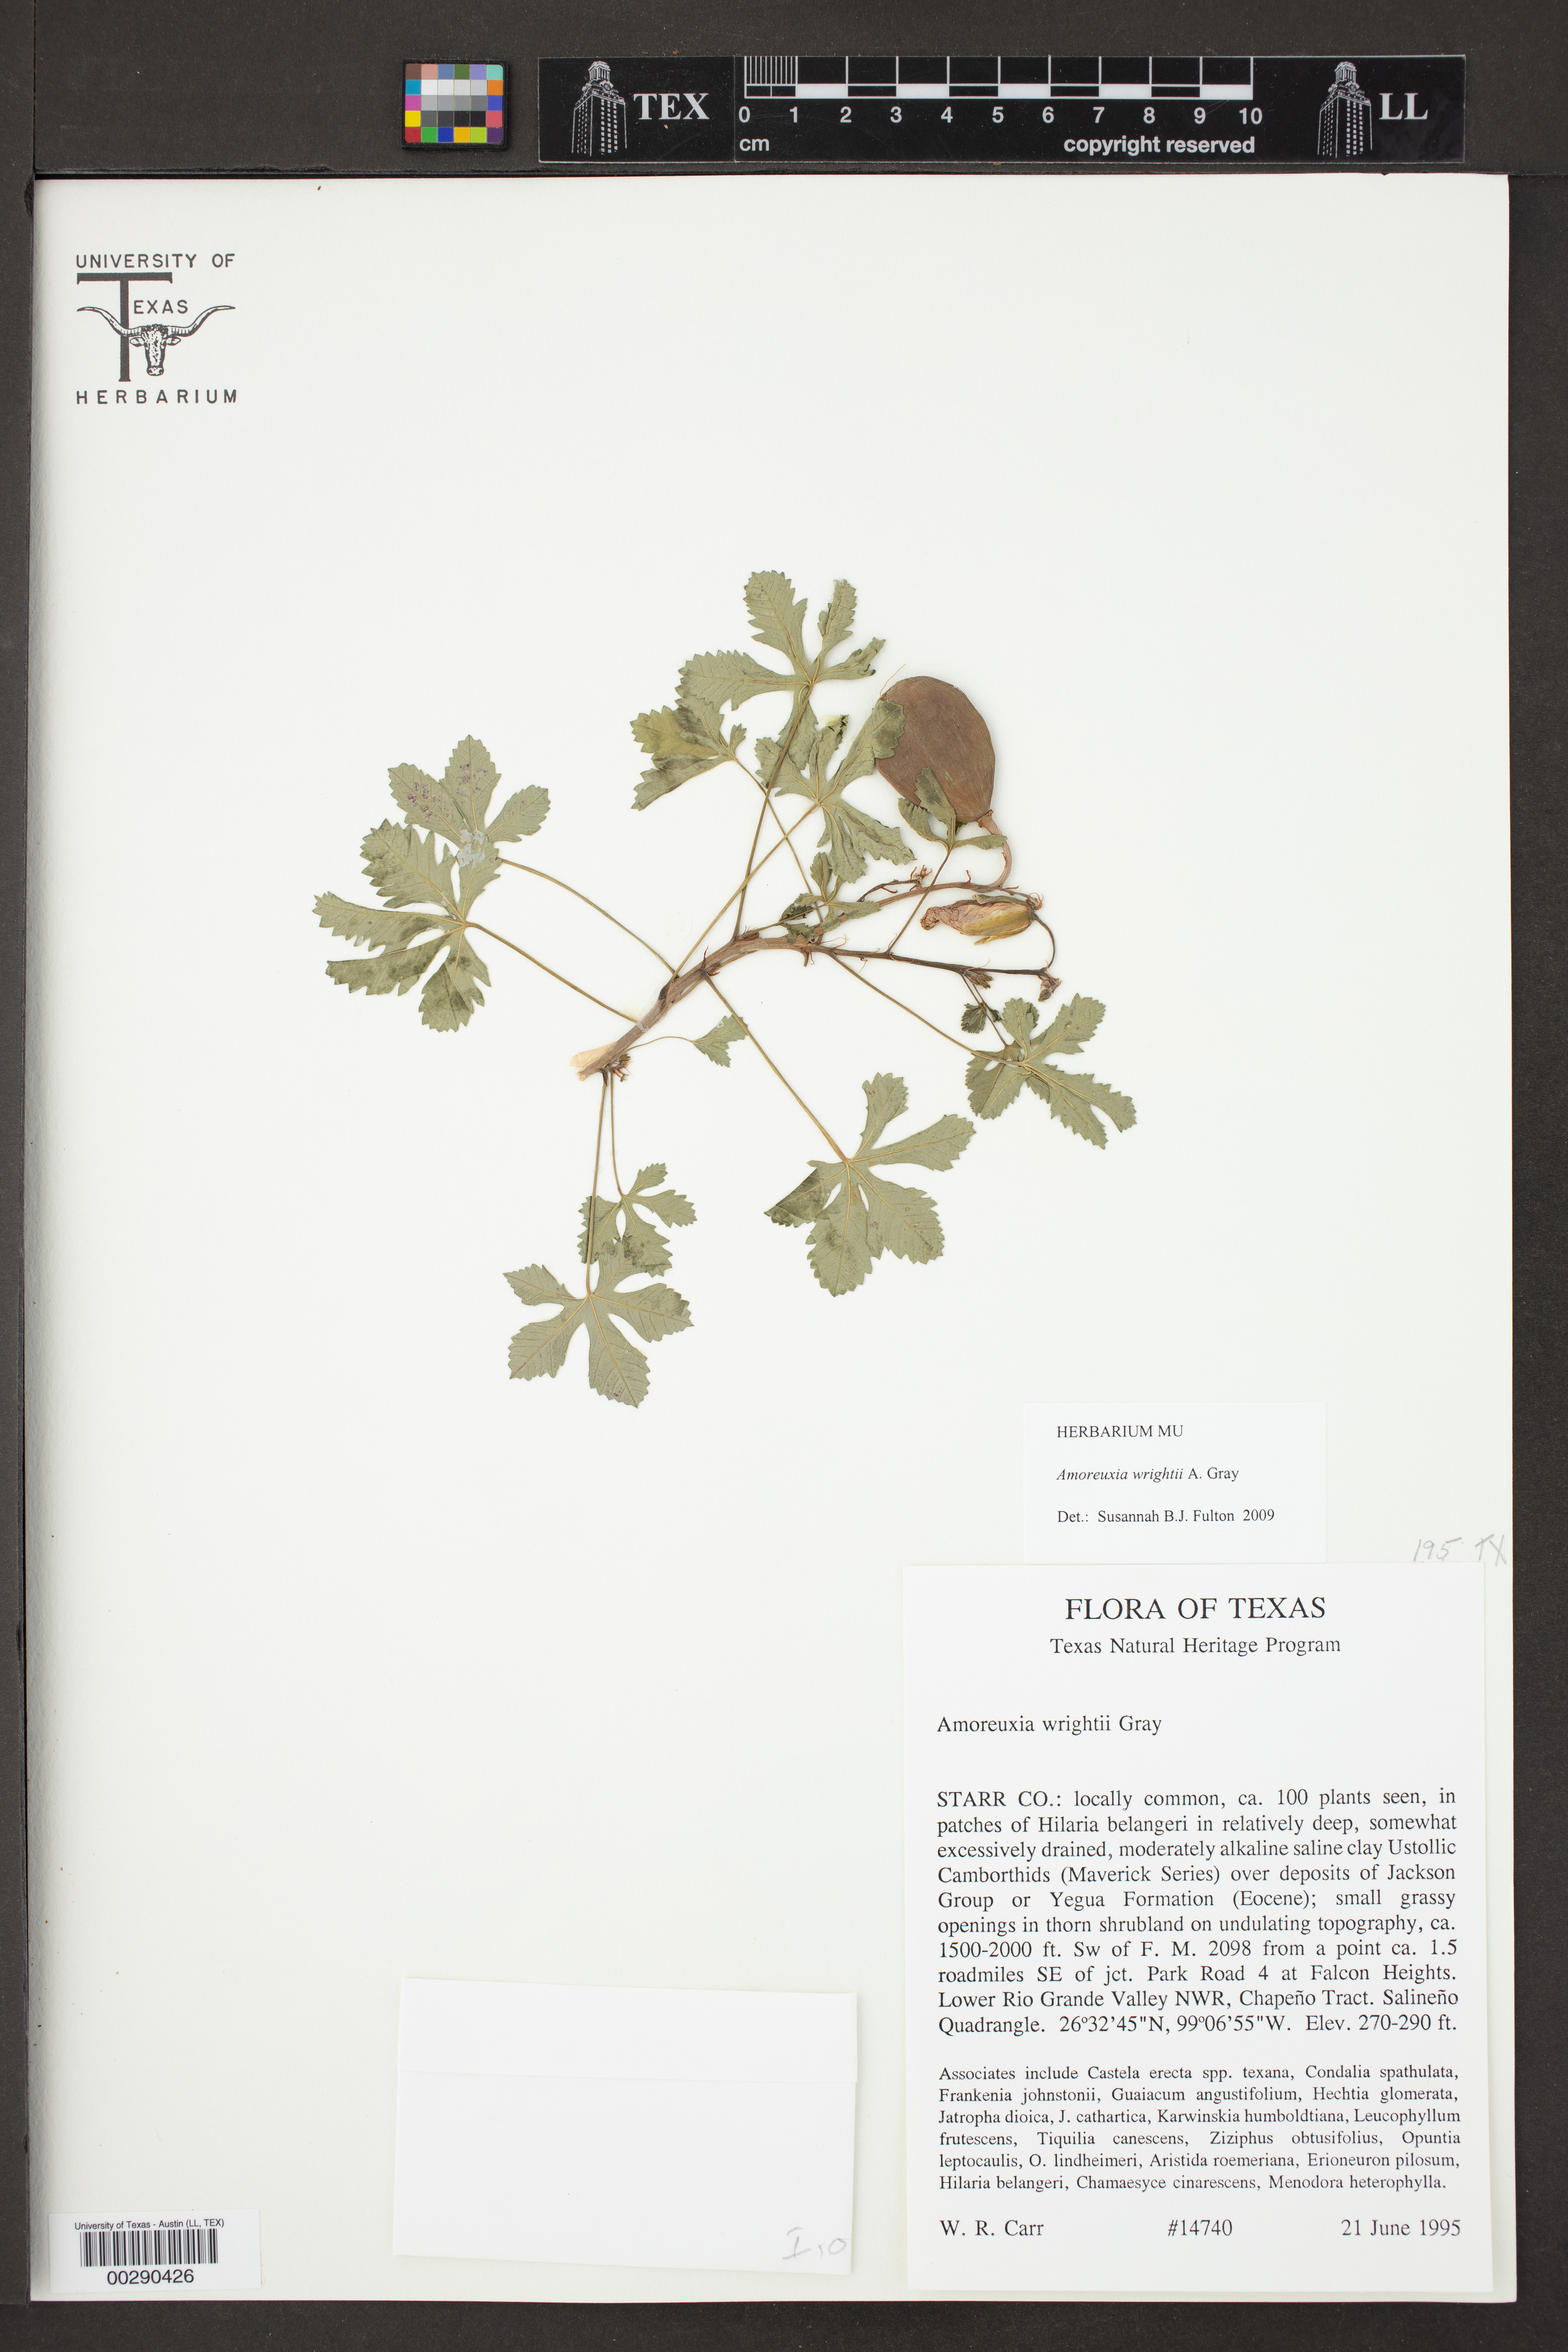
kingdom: Plantae
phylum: Tracheophyta
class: Magnoliopsida
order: Malvales
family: Cochlospermaceae
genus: Cochlospermum
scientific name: Cochlospermum wrightii
